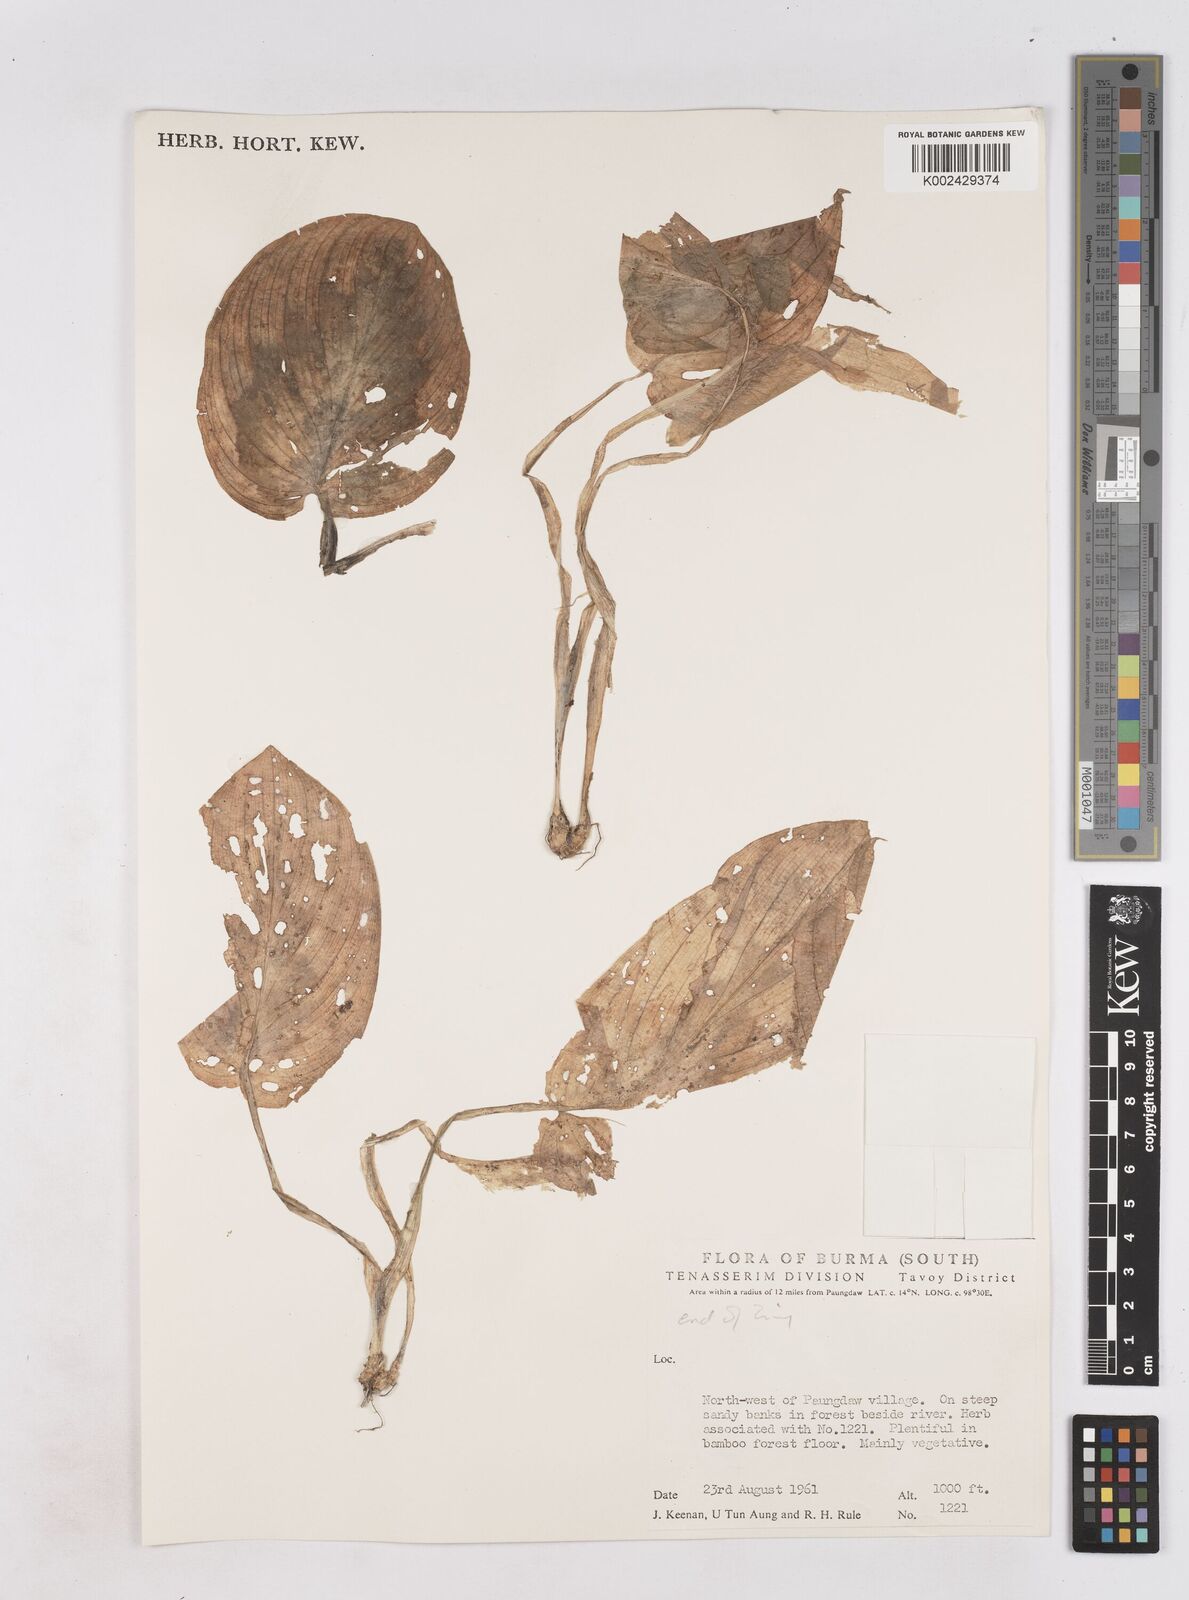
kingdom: Plantae
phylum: Tracheophyta
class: Liliopsida
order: Zingiberales
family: Zingiberaceae
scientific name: Zingiberaceae
